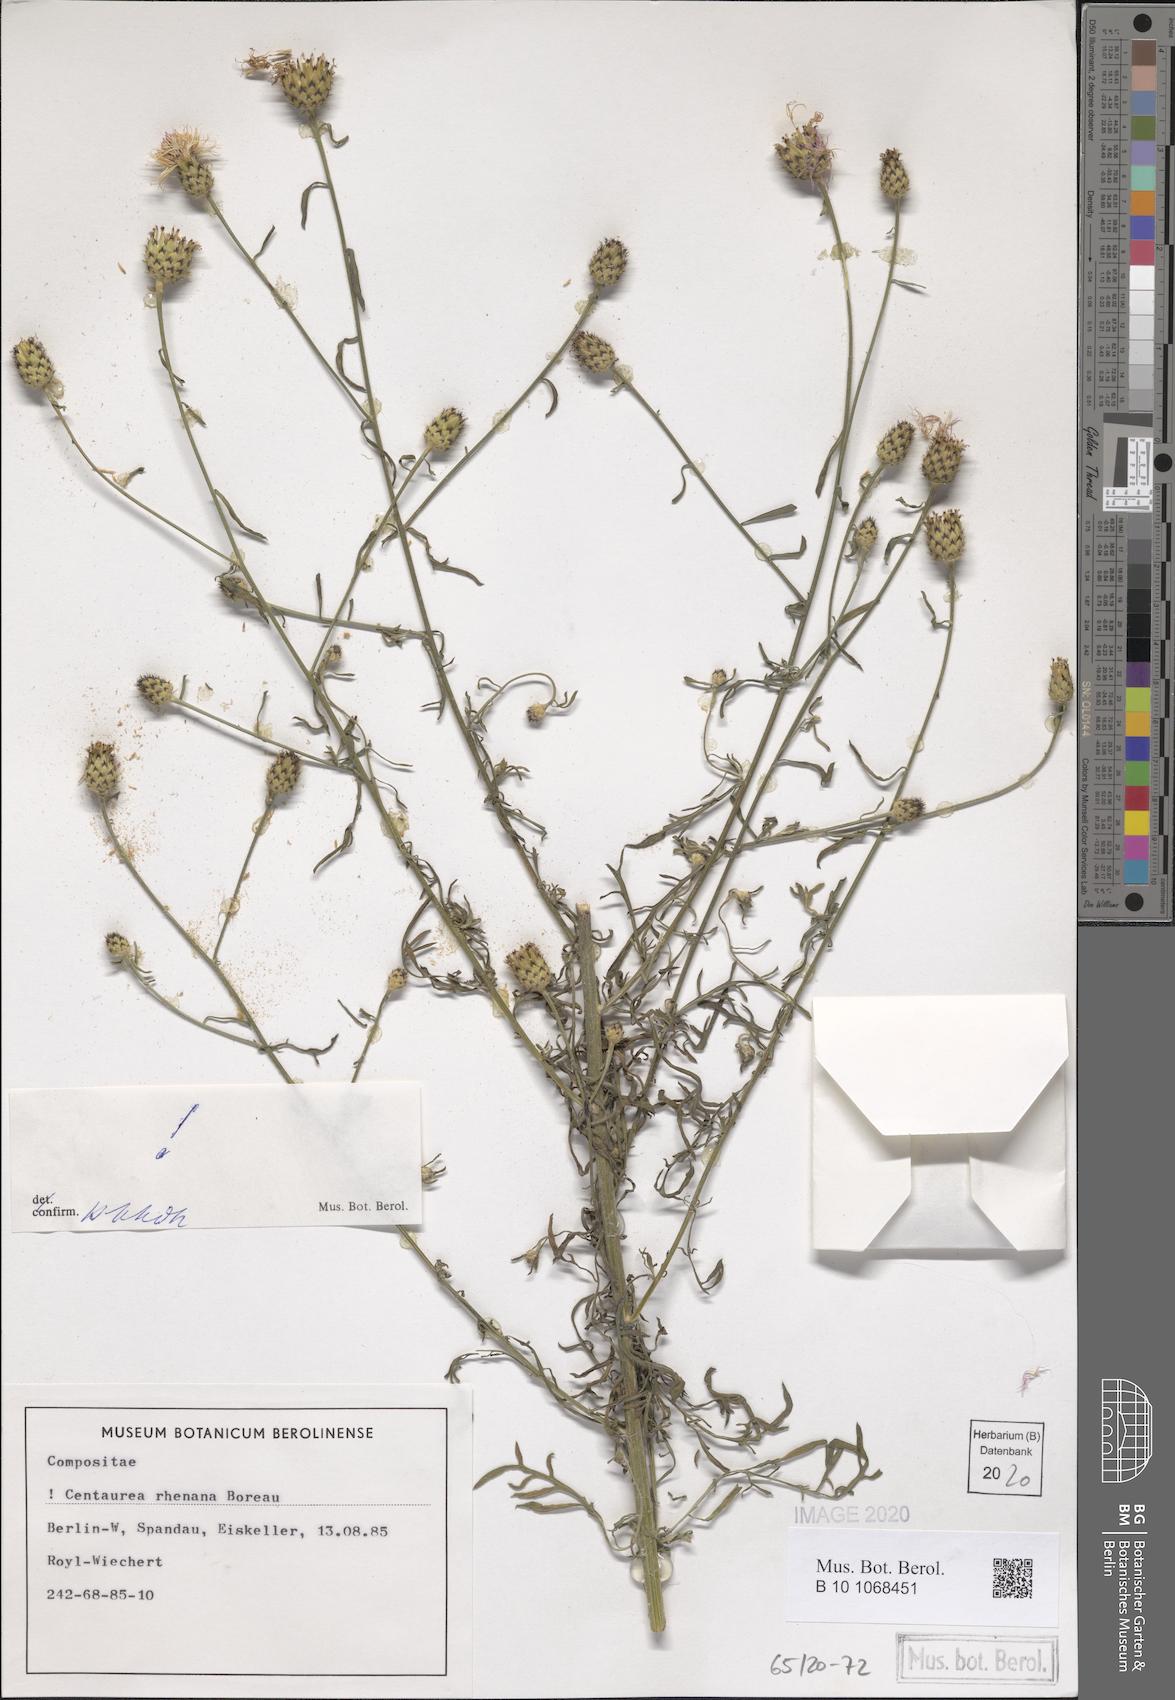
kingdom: Plantae
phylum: Tracheophyta
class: Magnoliopsida
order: Asterales
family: Asteraceae
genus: Centaurea
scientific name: Centaurea stoebe
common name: Spotted knapweed
